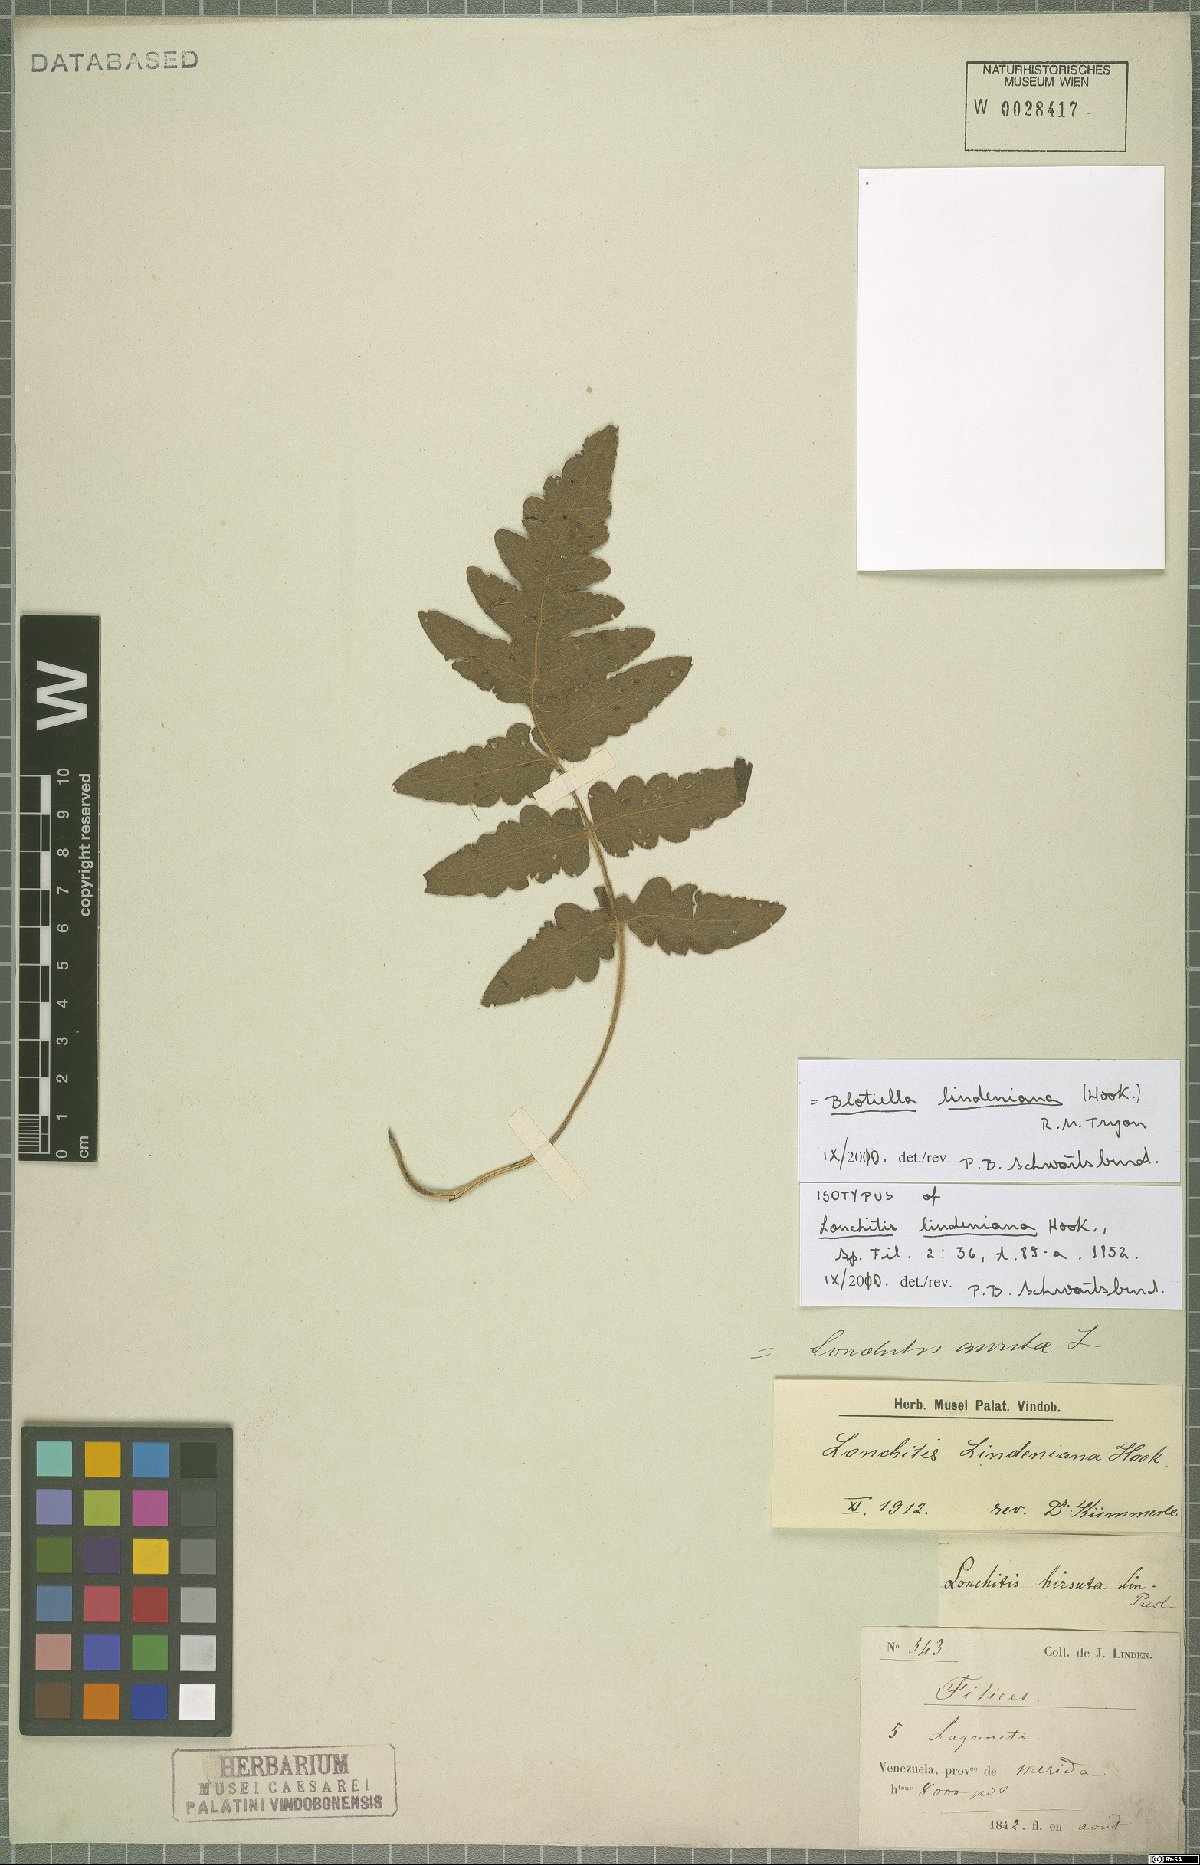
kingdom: Plantae
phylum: Tracheophyta
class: Polypodiopsida
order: Polypodiales
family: Dennstaedtiaceae
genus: Blotiella
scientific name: Blotiella aurita
